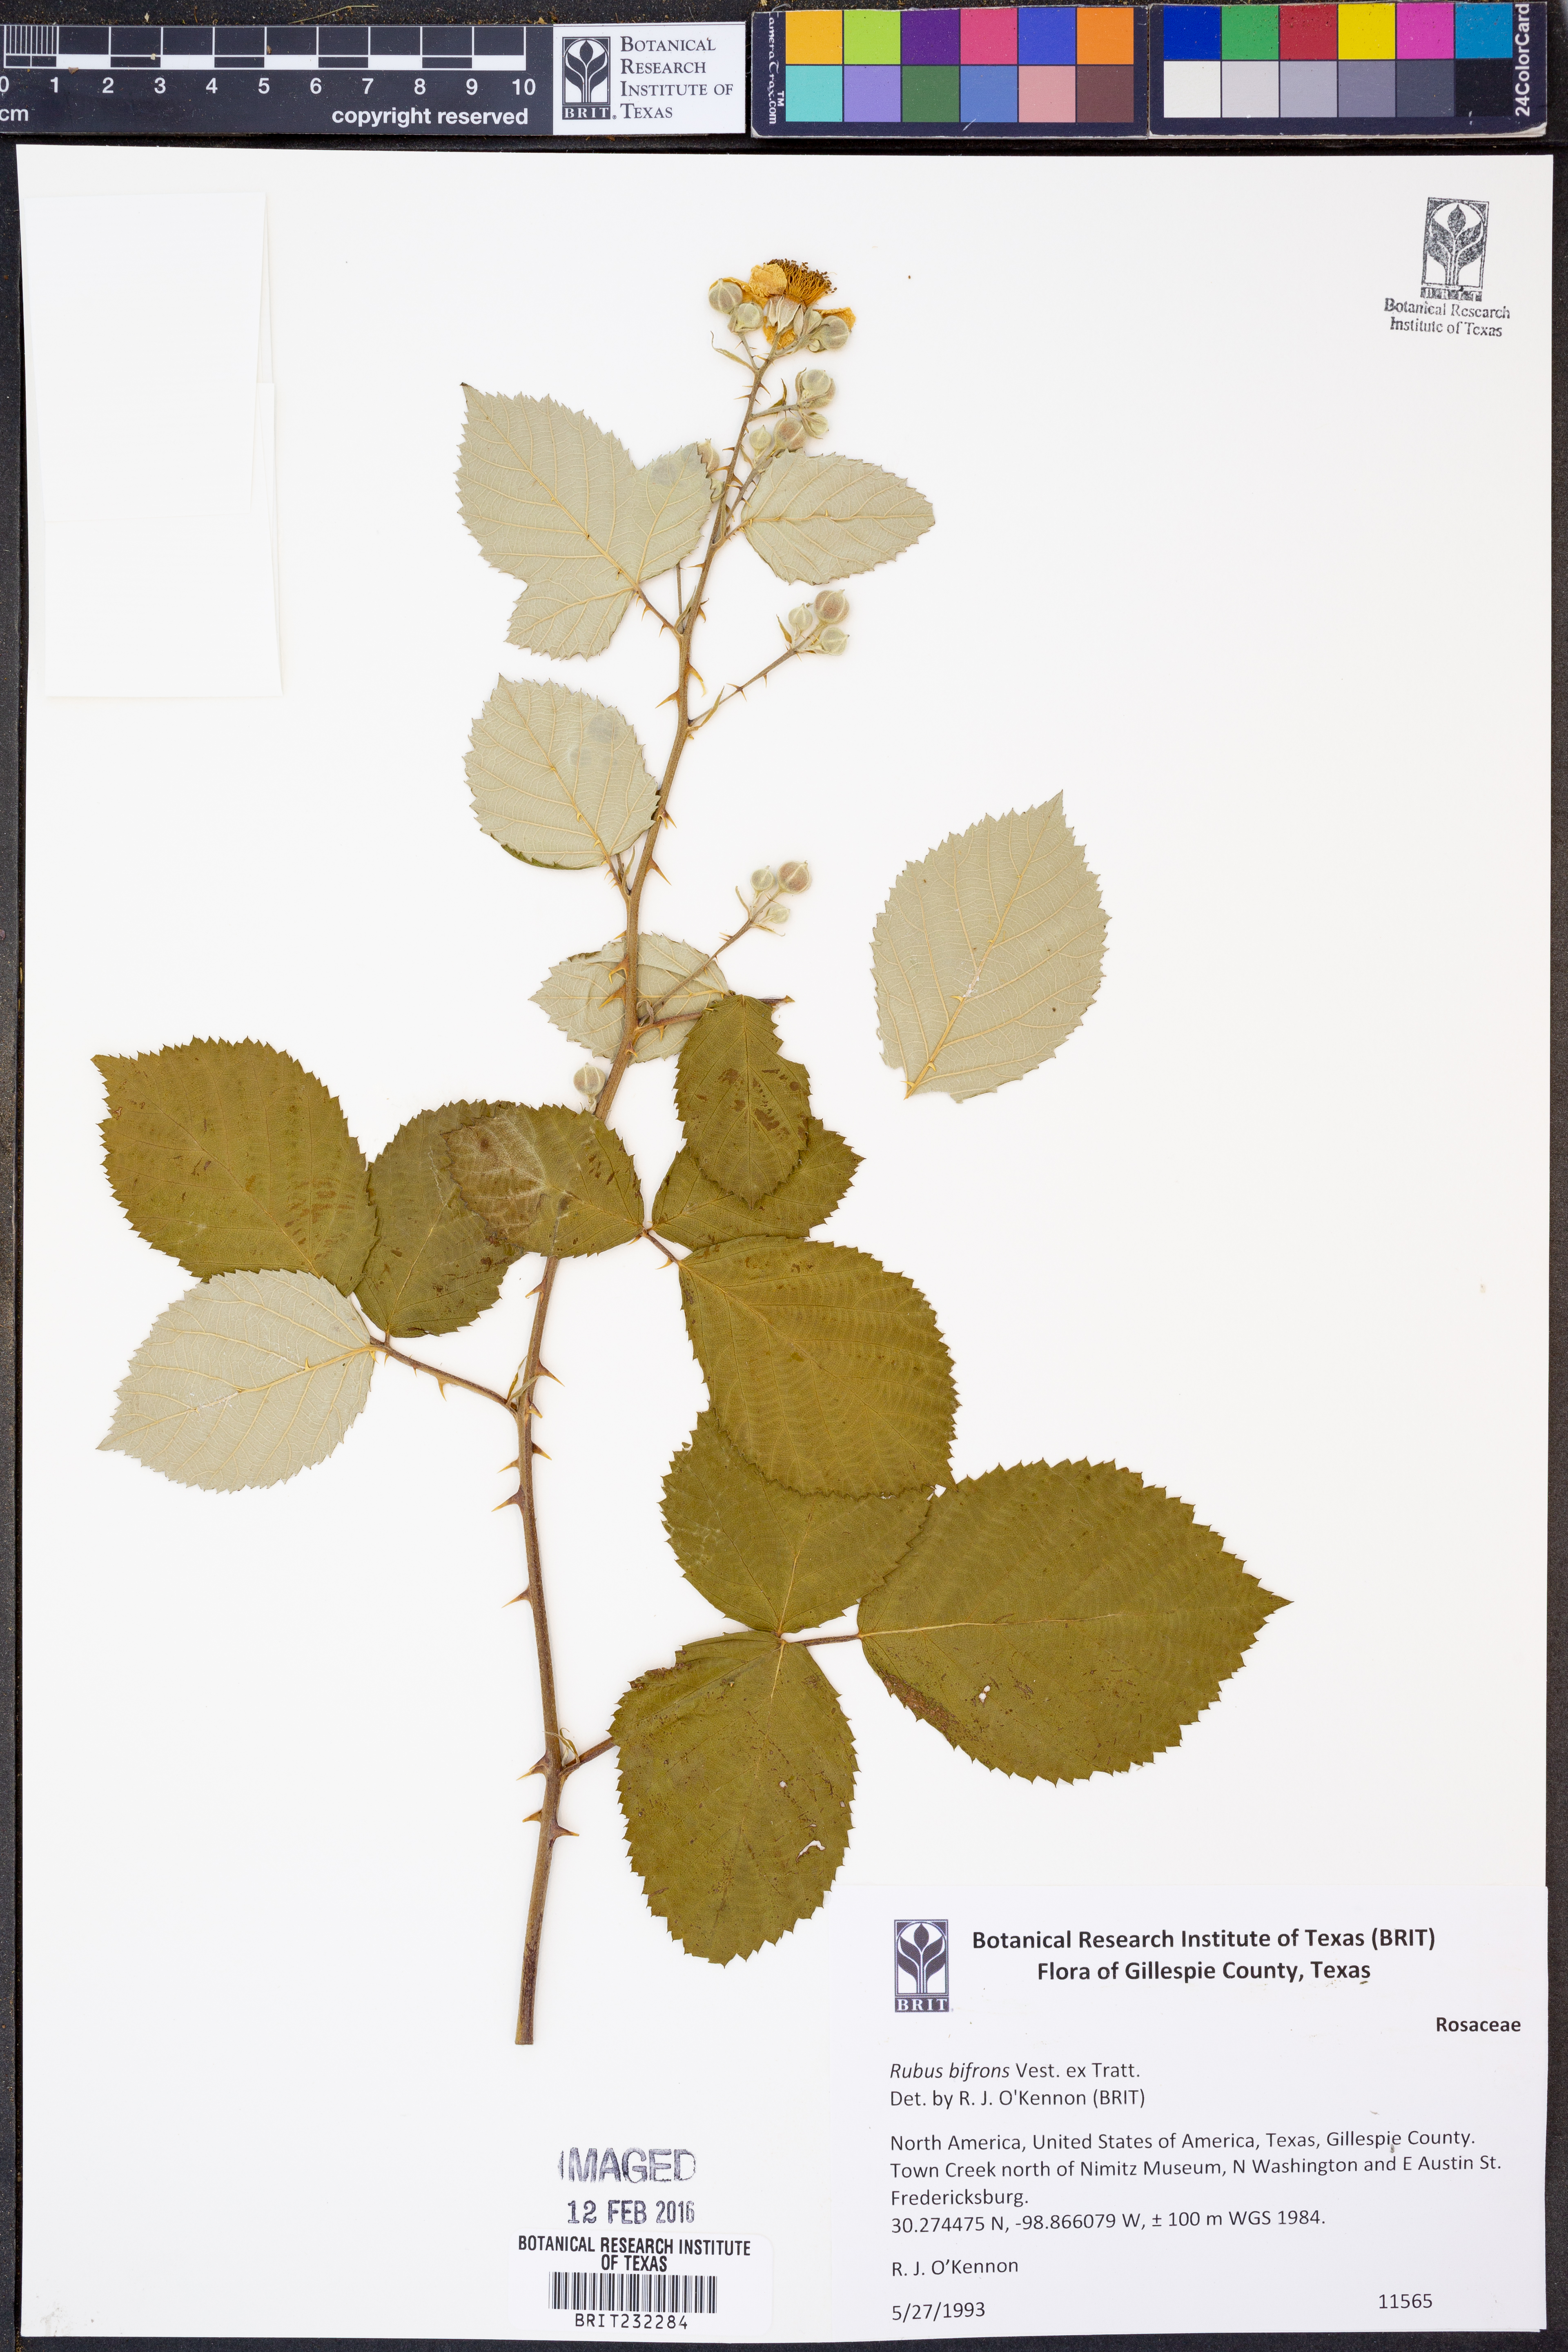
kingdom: Plantae
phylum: Tracheophyta
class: Magnoliopsida
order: Rosales
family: Rosaceae
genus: Rubus
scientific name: Rubus bifrons
